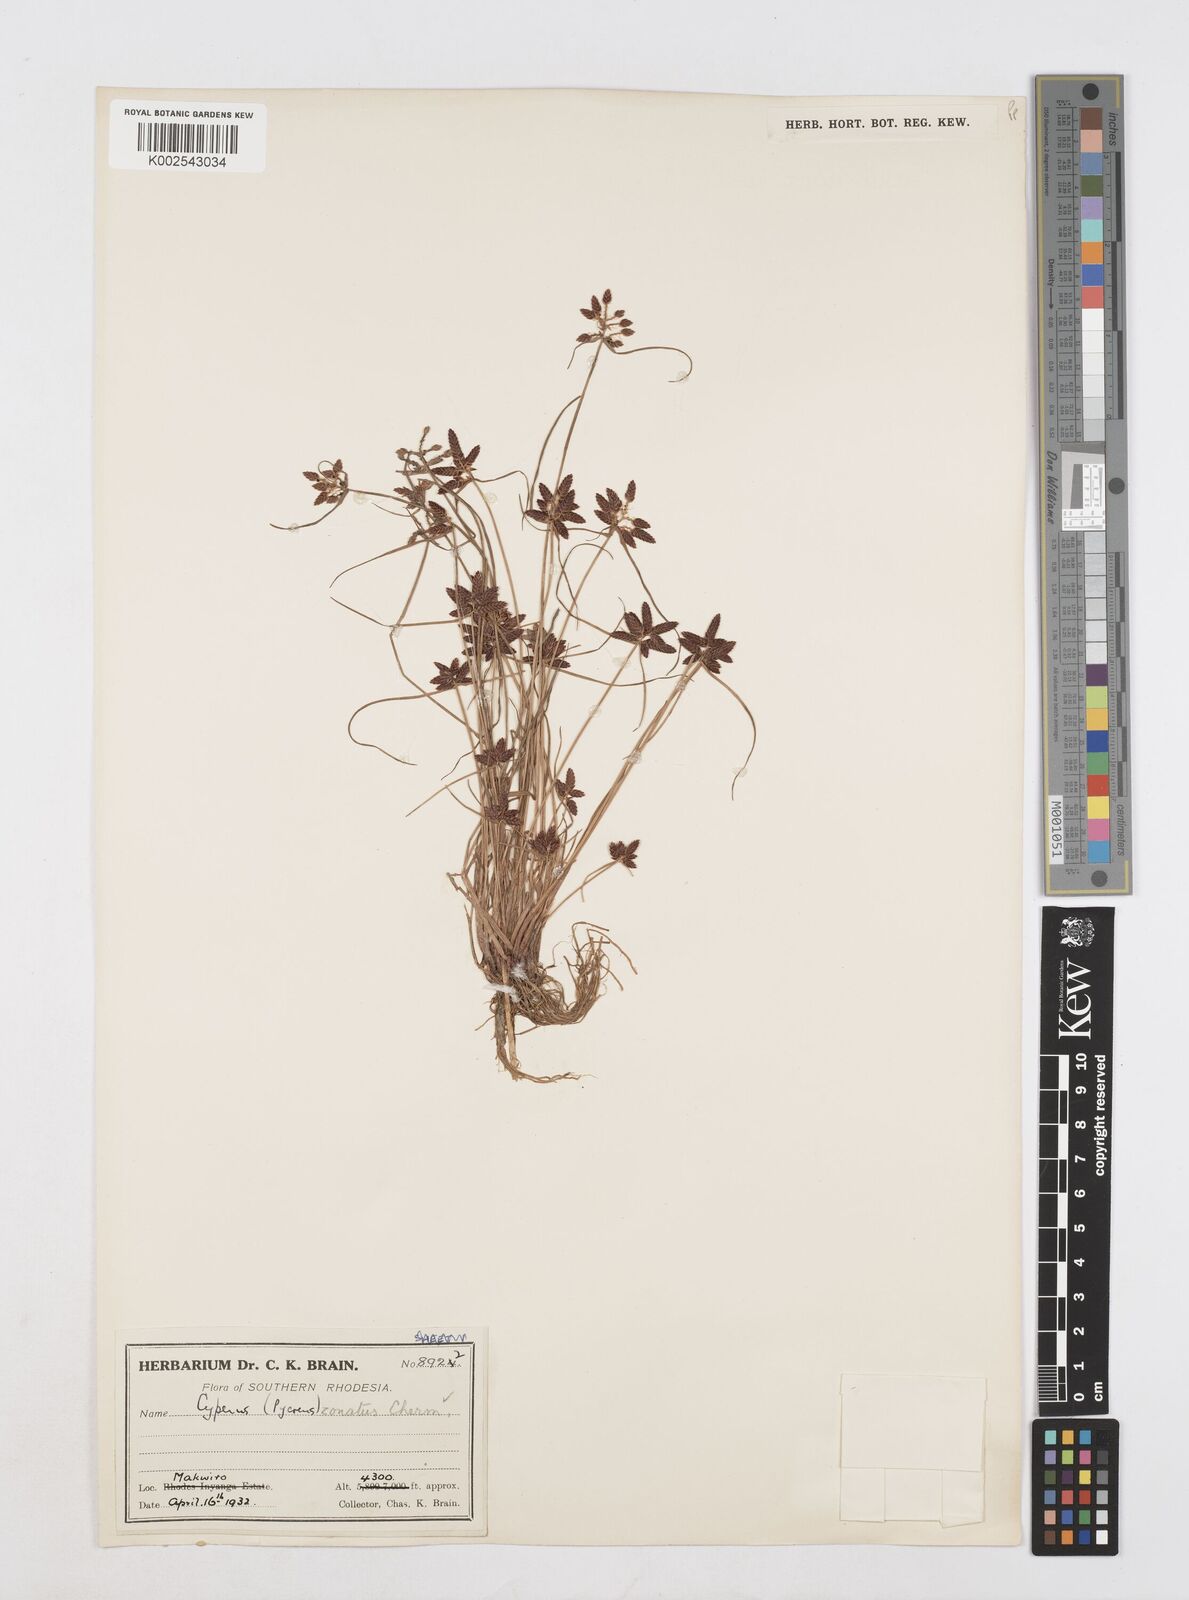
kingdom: Plantae
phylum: Tracheophyta
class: Liliopsida
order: Poales
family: Cyperaceae
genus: Cyperus
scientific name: Cyperus zonatissimus
